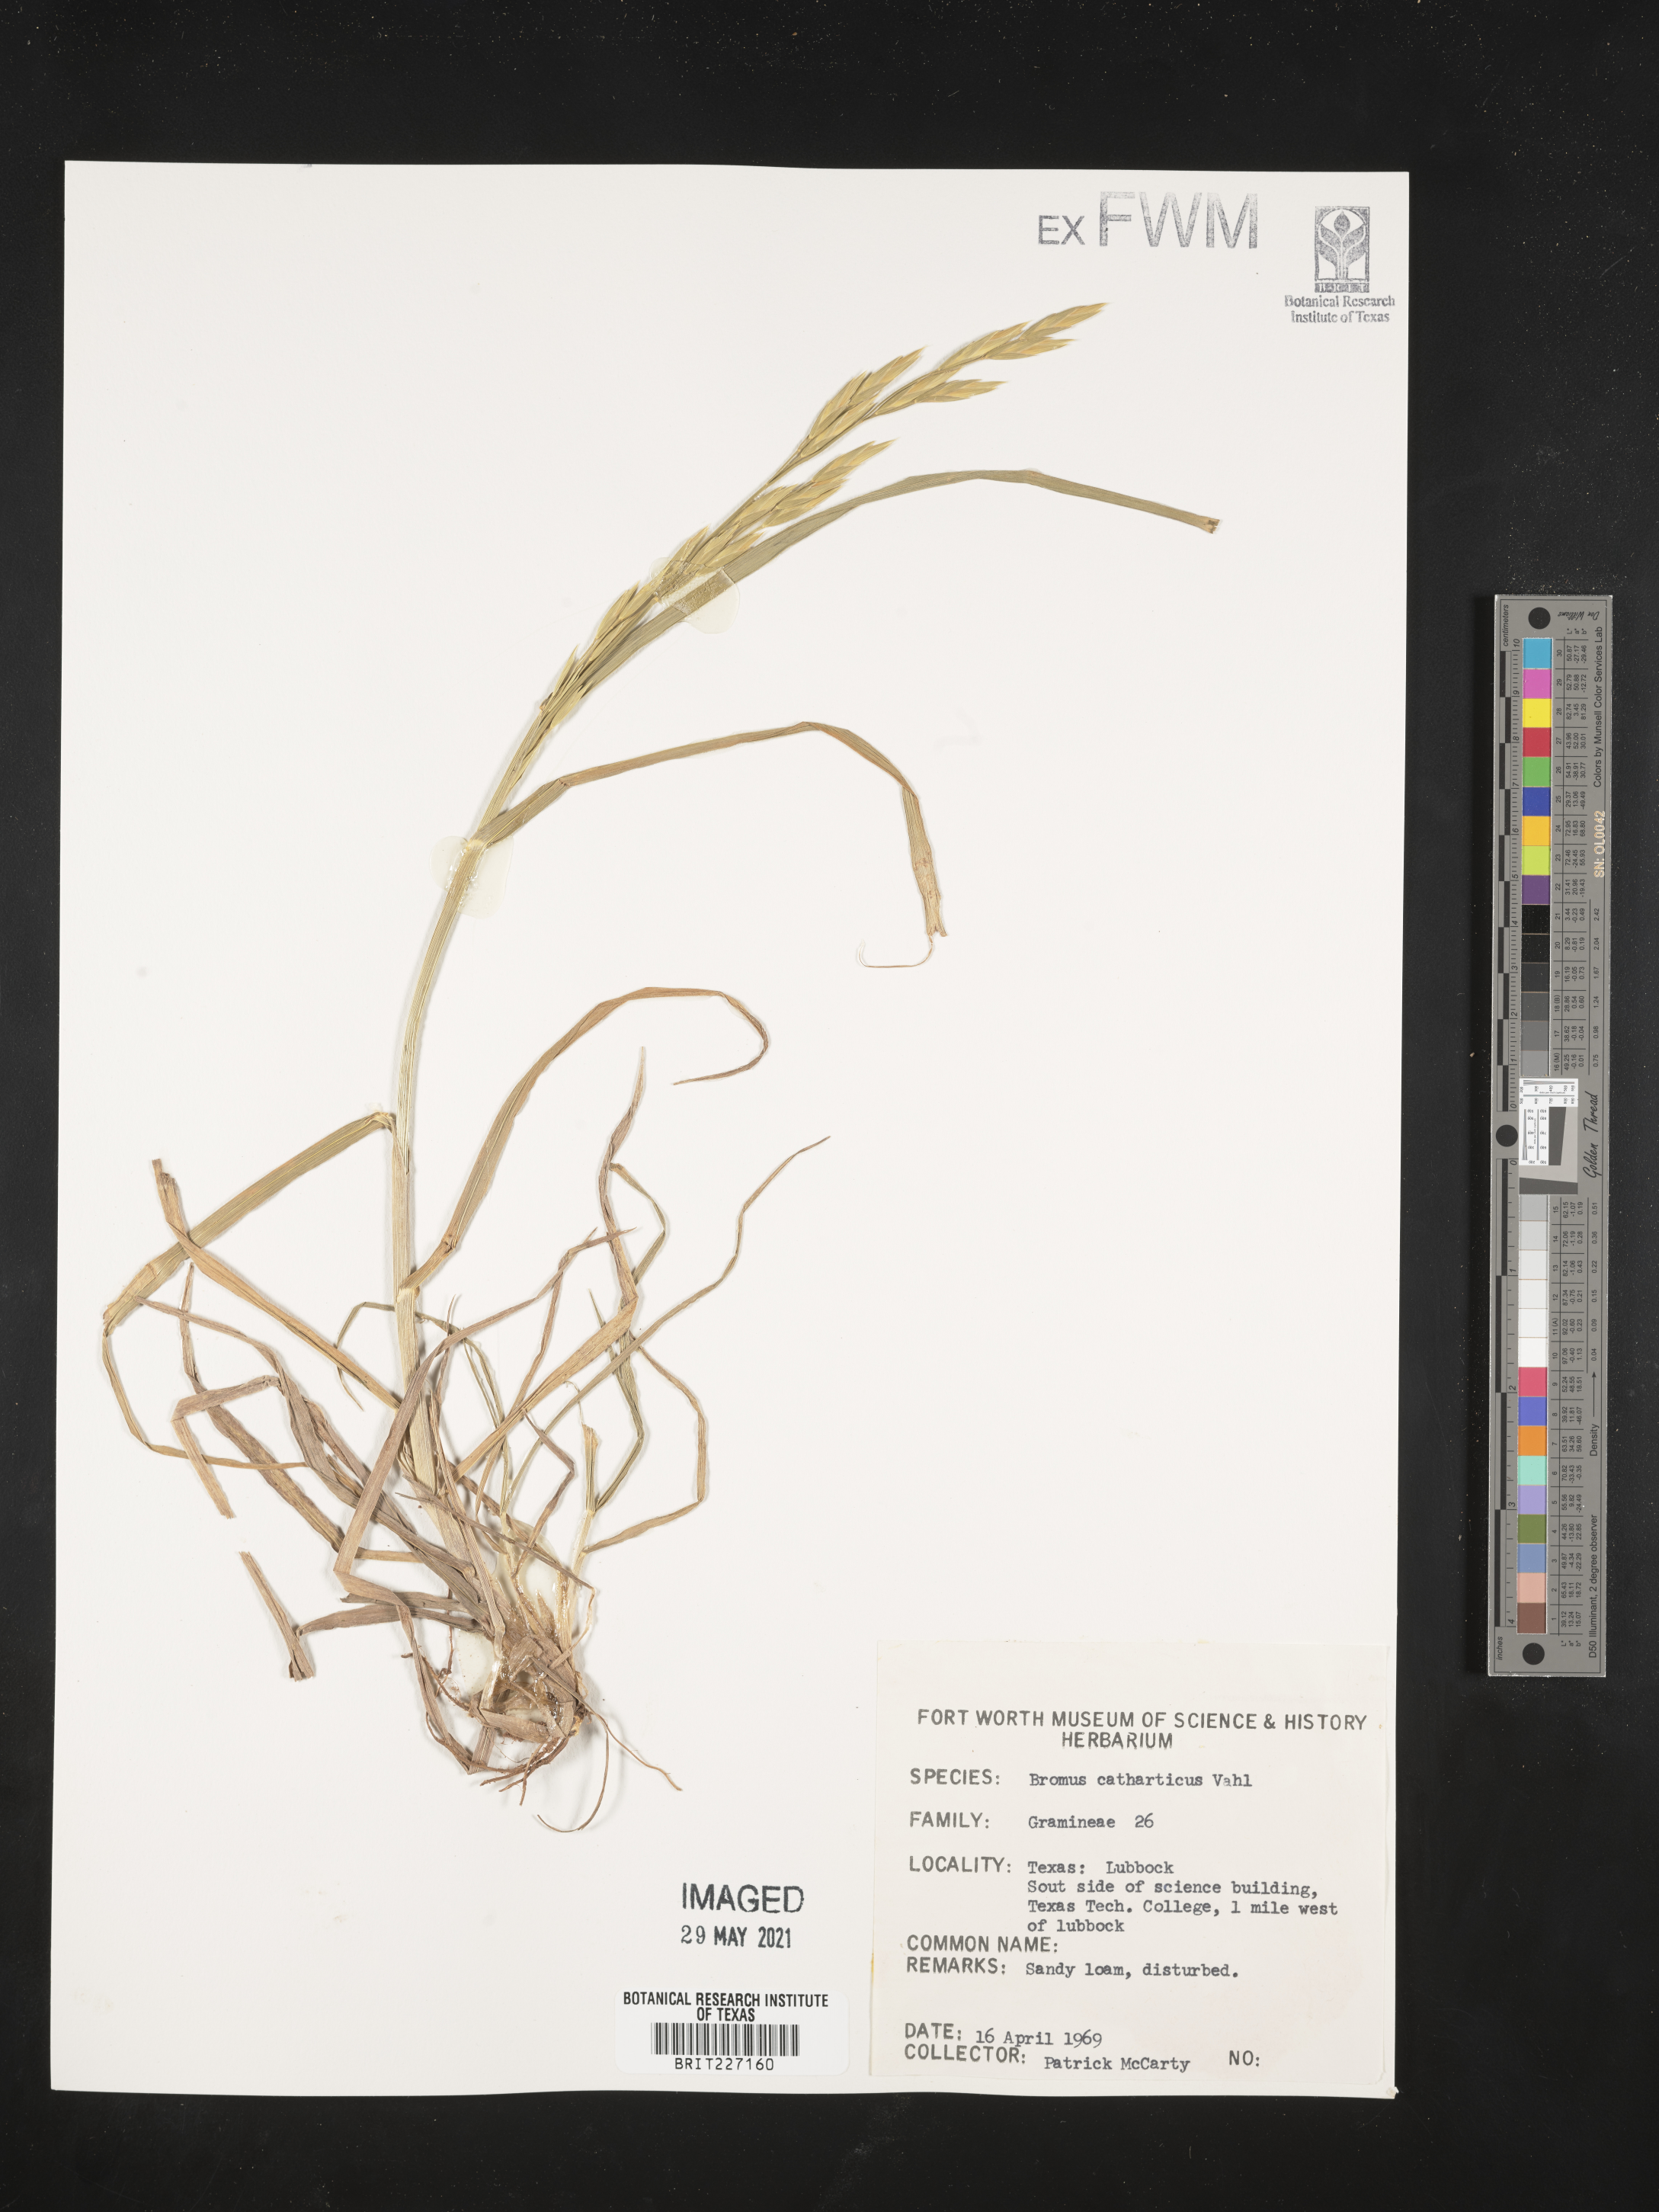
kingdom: Plantae
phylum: Tracheophyta
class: Liliopsida
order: Poales
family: Poaceae
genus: Bromus
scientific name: Bromus catharticus
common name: Rescuegrass
